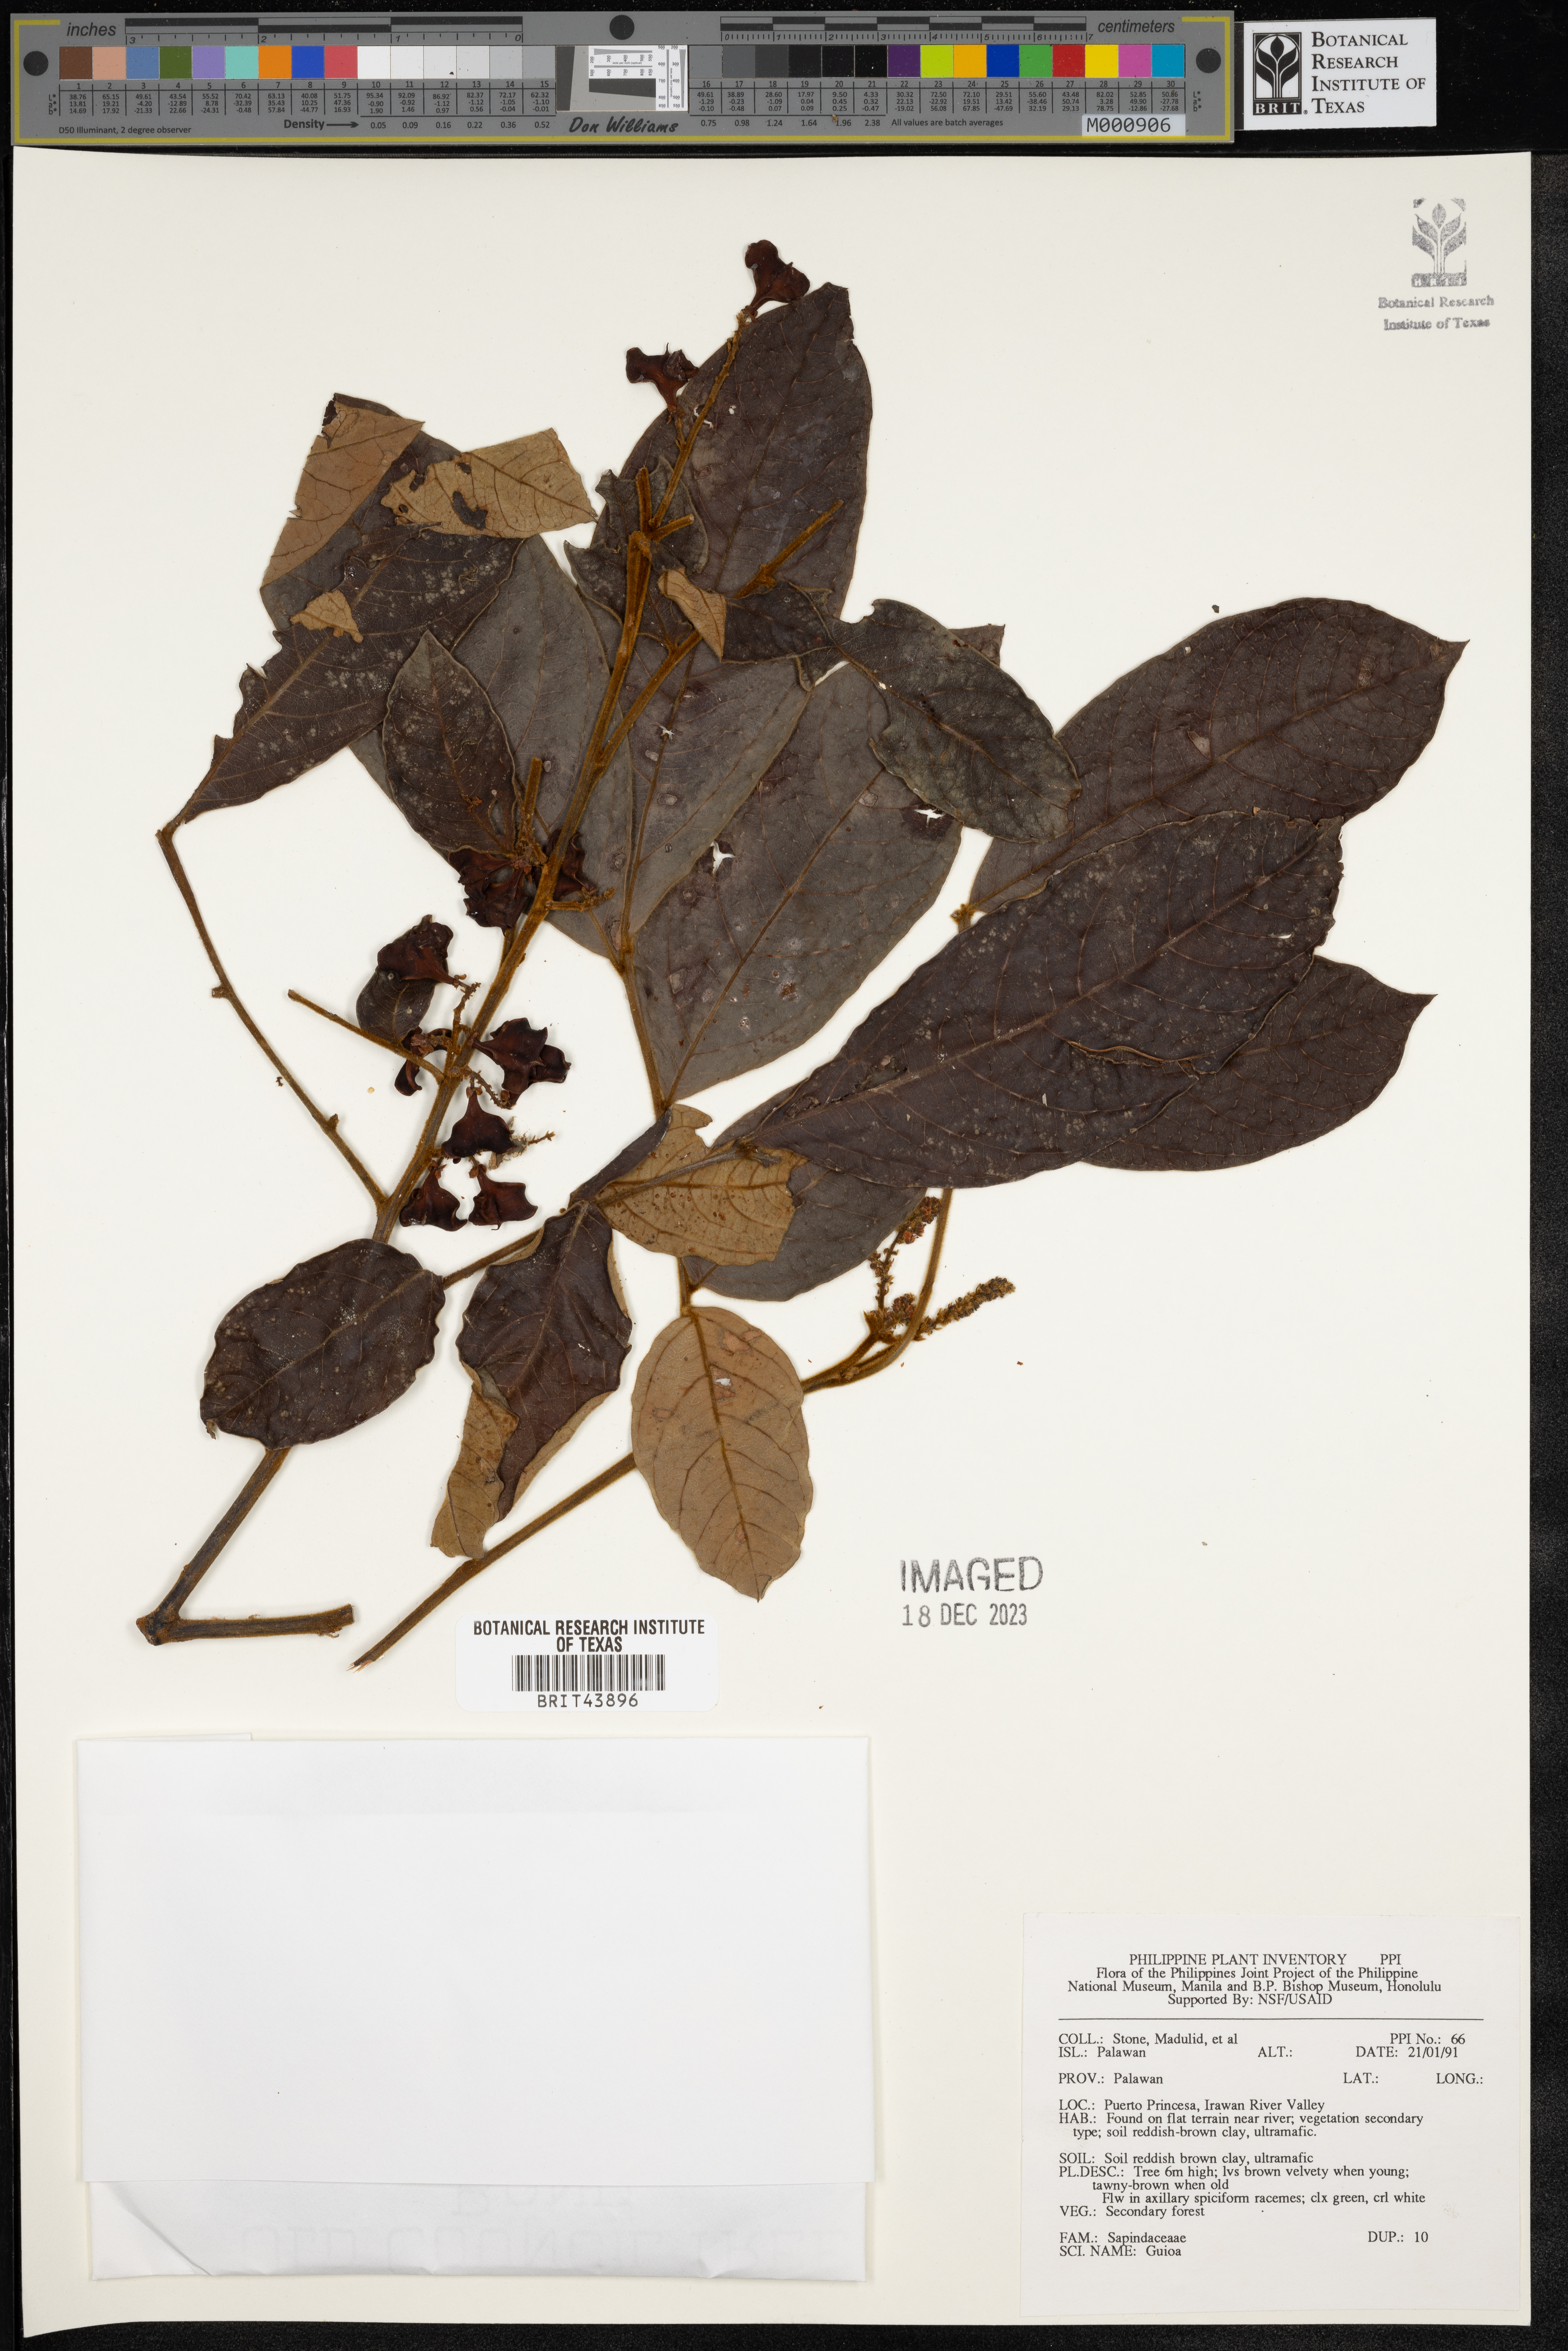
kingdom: Plantae
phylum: Tracheophyta
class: Magnoliopsida
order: Sapindales
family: Sapindaceae
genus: Guioa
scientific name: Guioa
